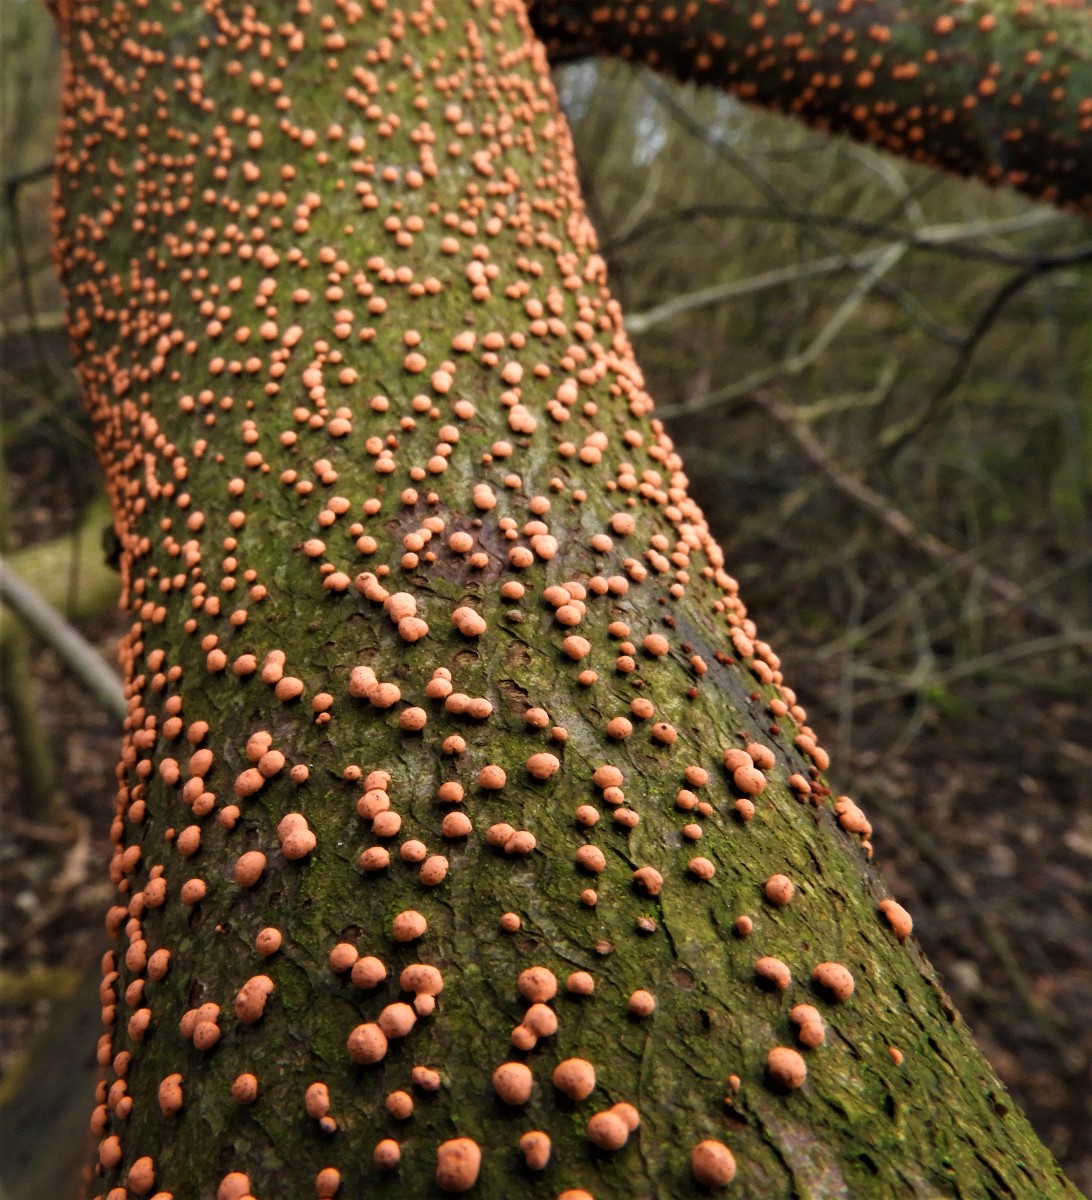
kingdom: Fungi
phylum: Ascomycota
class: Sordariomycetes
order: Hypocreales
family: Nectriaceae
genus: Nectria
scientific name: Nectria cinnabarina
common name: almindelig cinnobersvamp
